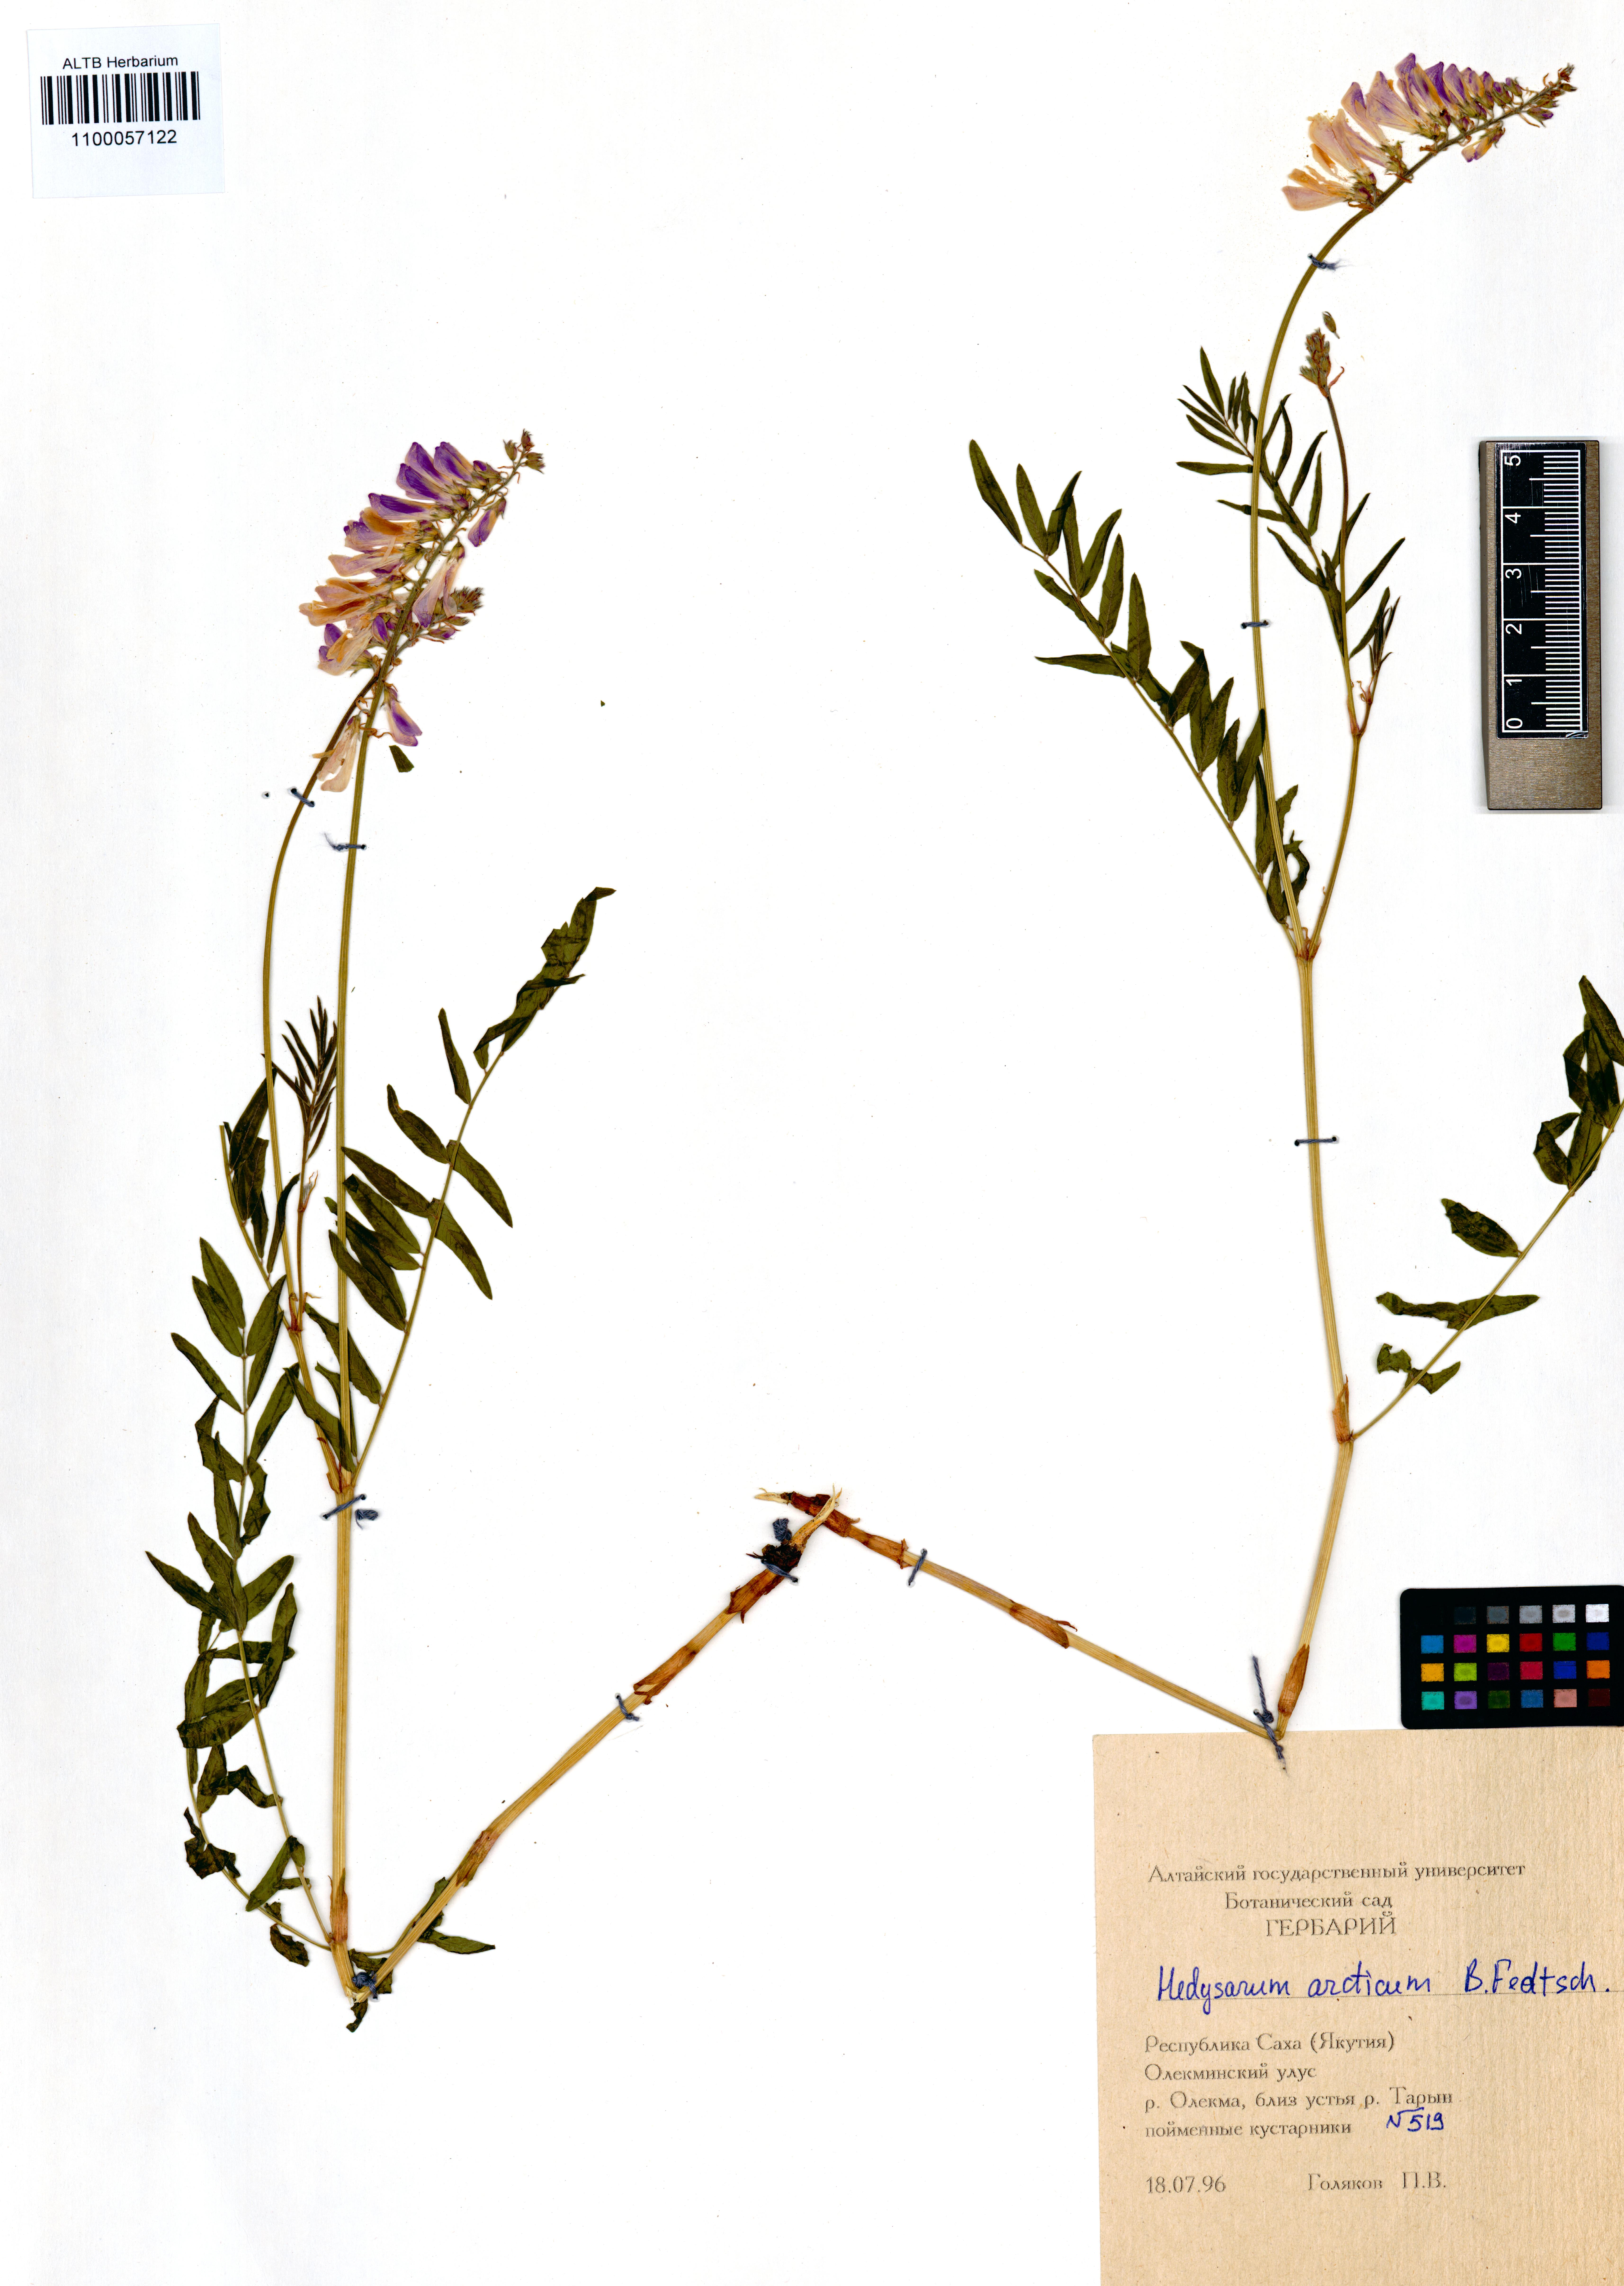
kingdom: Plantae
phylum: Tracheophyta
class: Magnoliopsida
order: Fabales
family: Fabaceae
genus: Hedysarum
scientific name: Hedysarum hedysaroides
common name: Alpine french-honeysuckle
